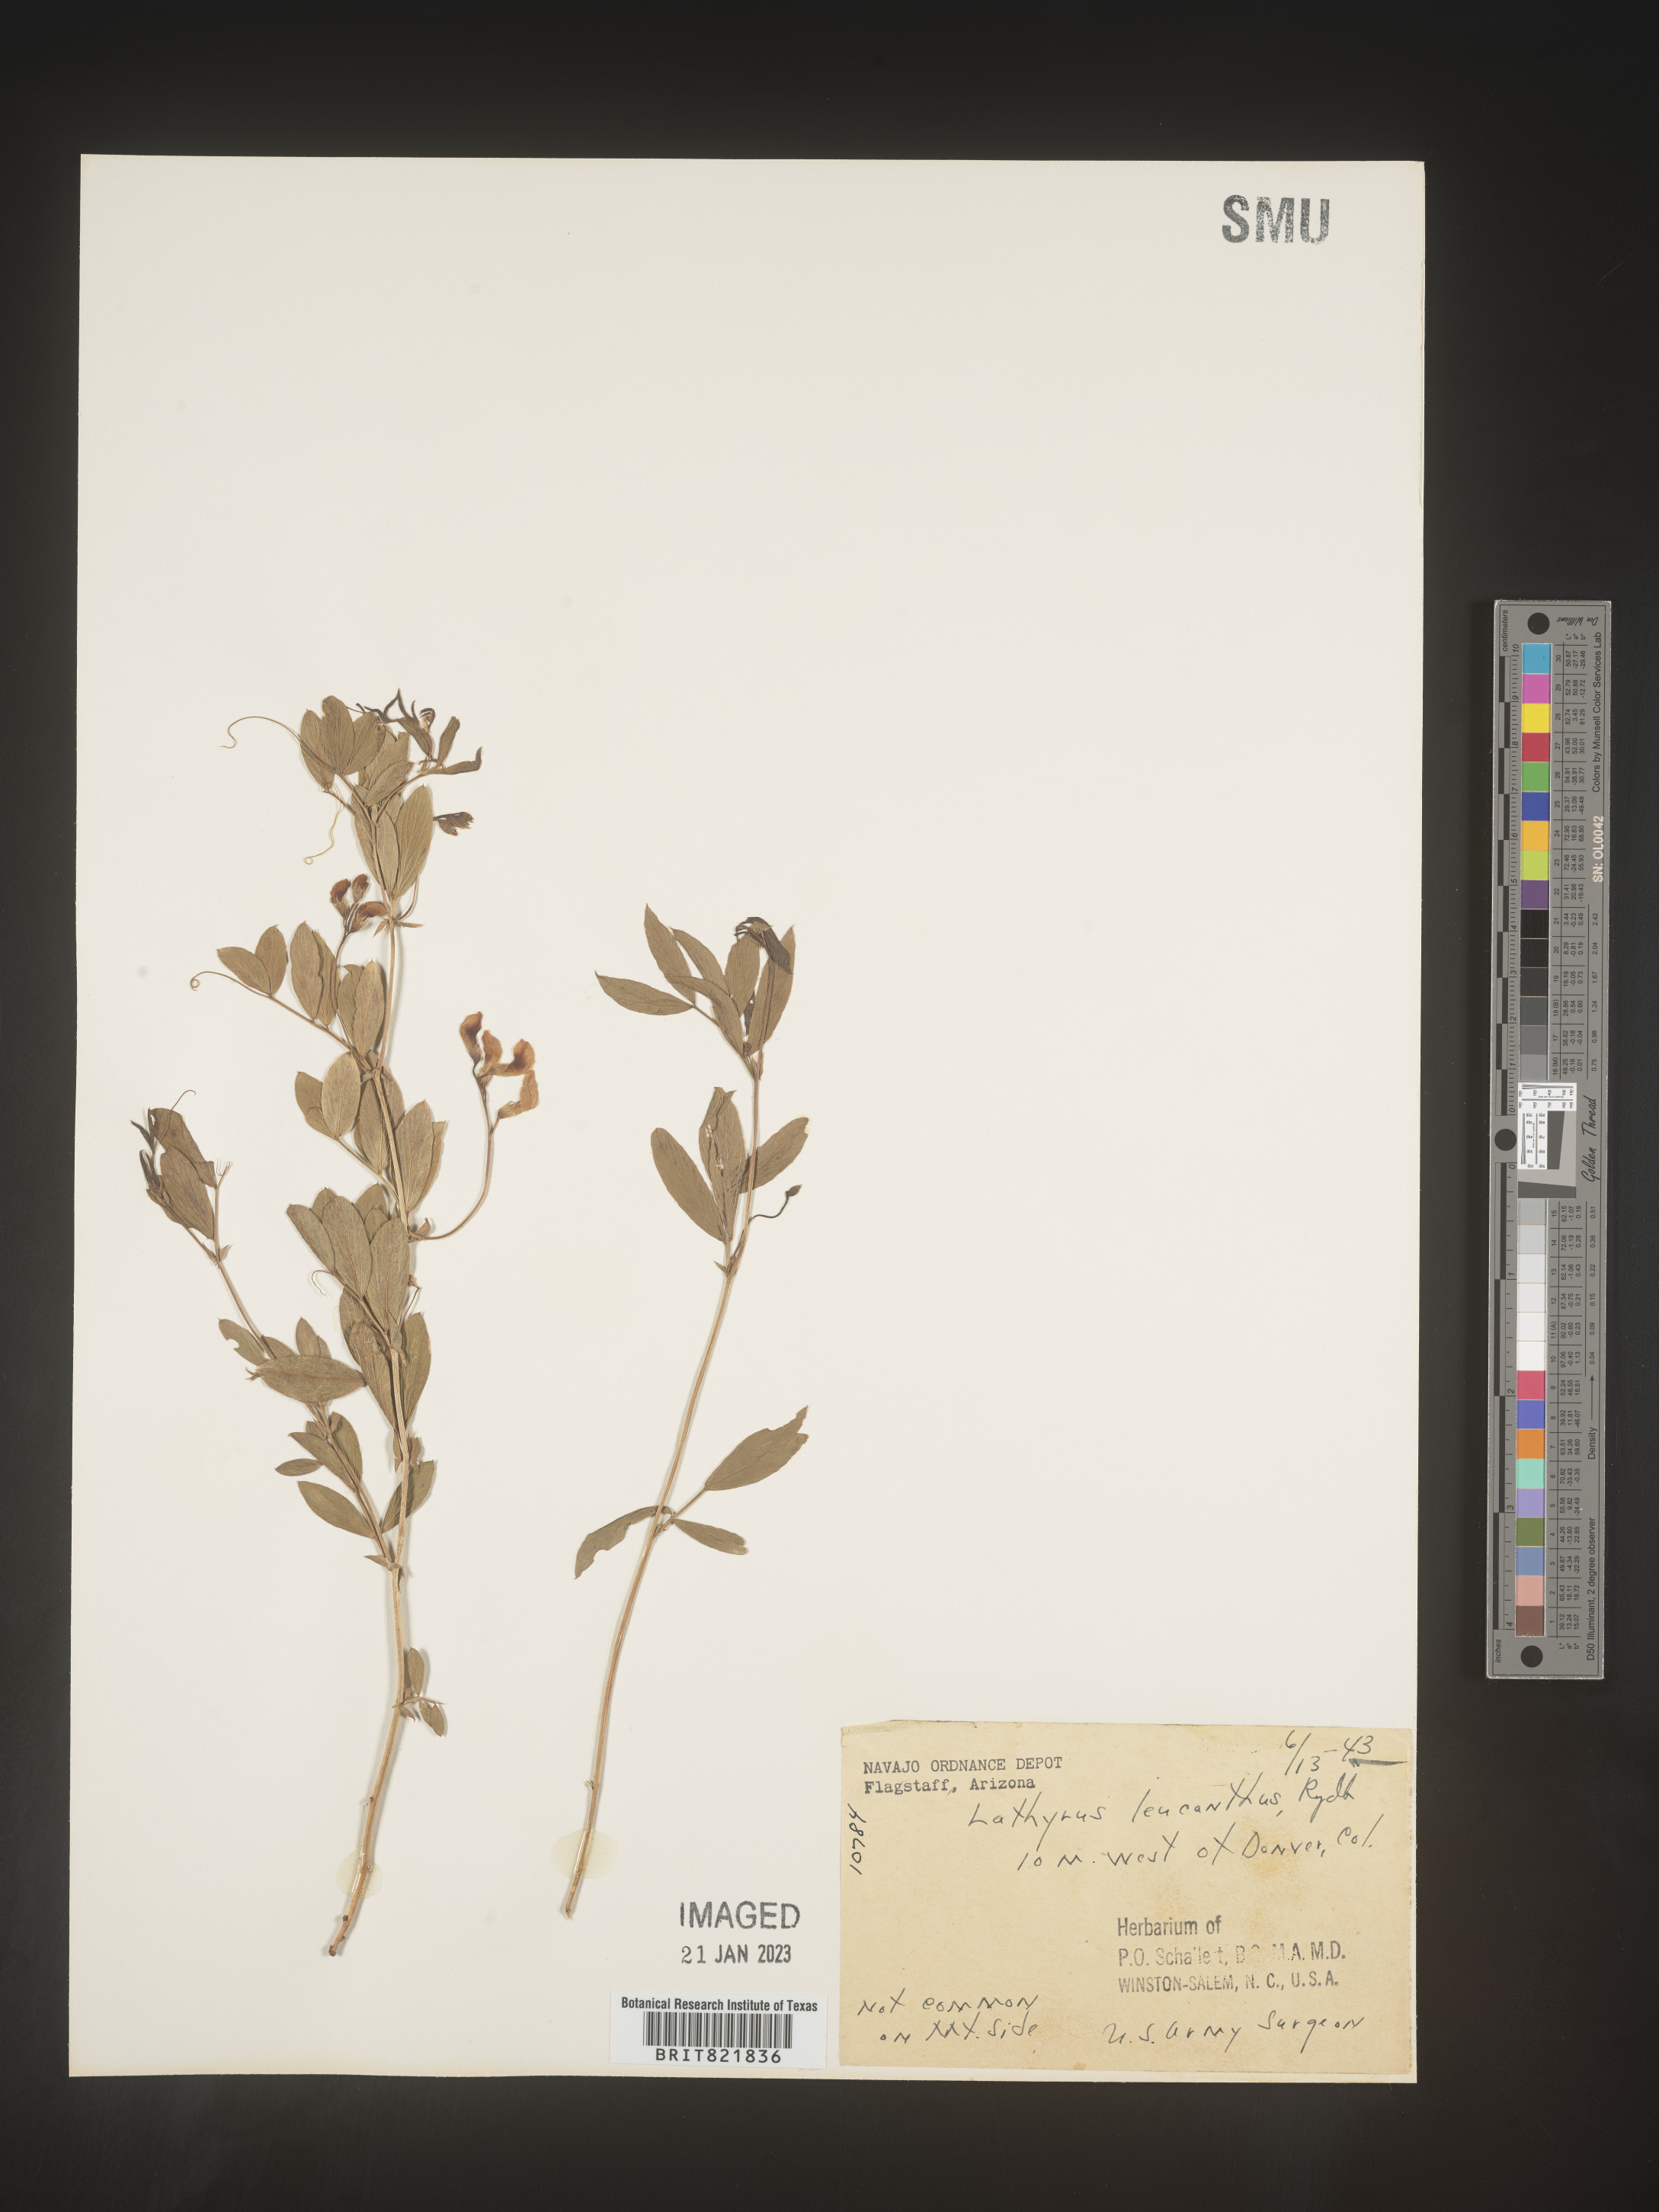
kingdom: Plantae
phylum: Tracheophyta
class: Magnoliopsida
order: Fabales
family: Fabaceae
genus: Lathyrus
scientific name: Lathyrus
